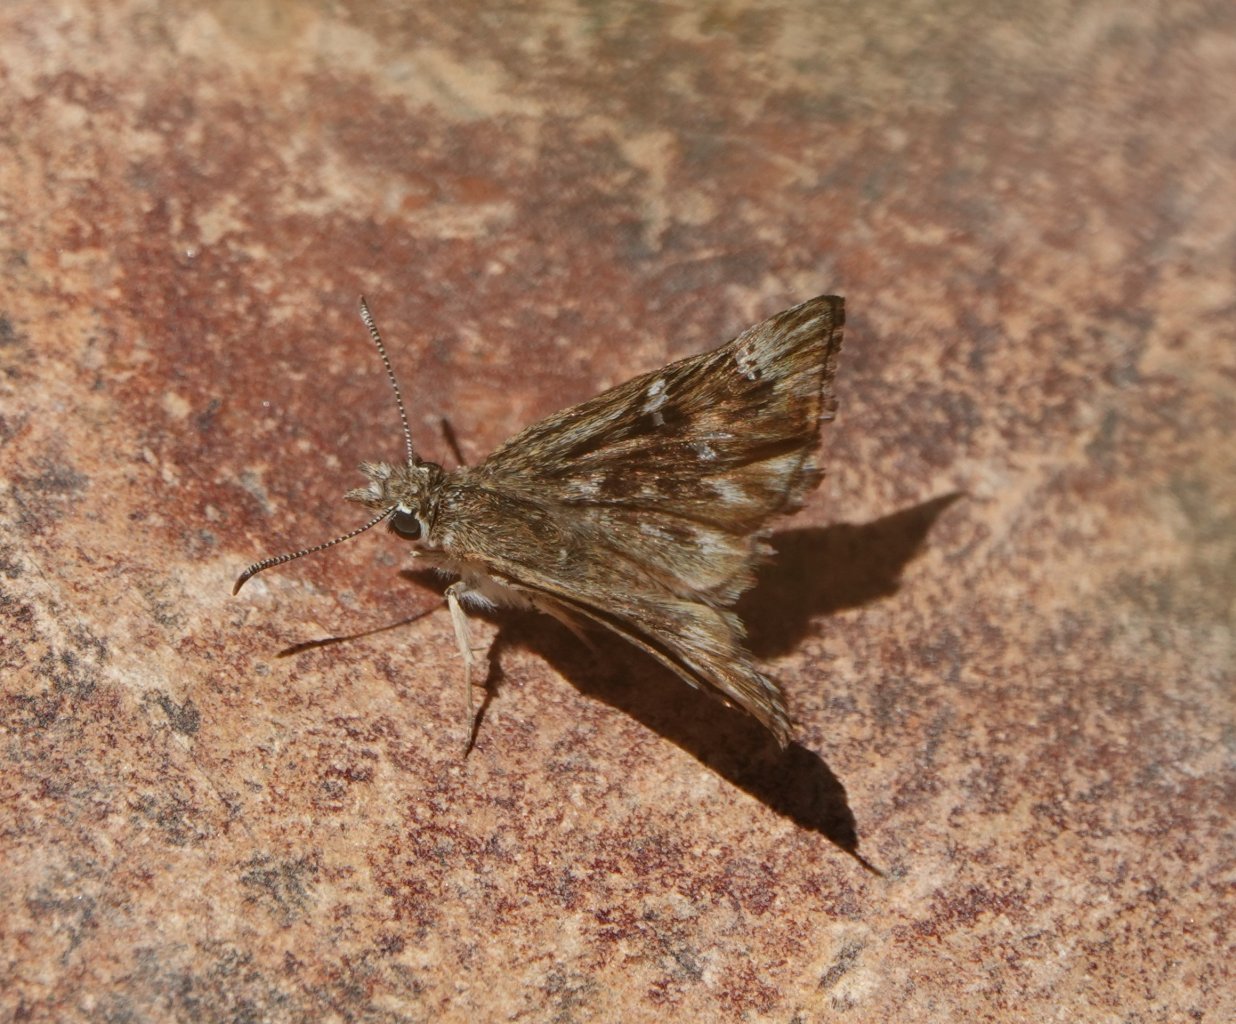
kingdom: Animalia
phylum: Arthropoda
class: Insecta
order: Lepidoptera
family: Hesperiidae
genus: Celotes
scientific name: Celotes
